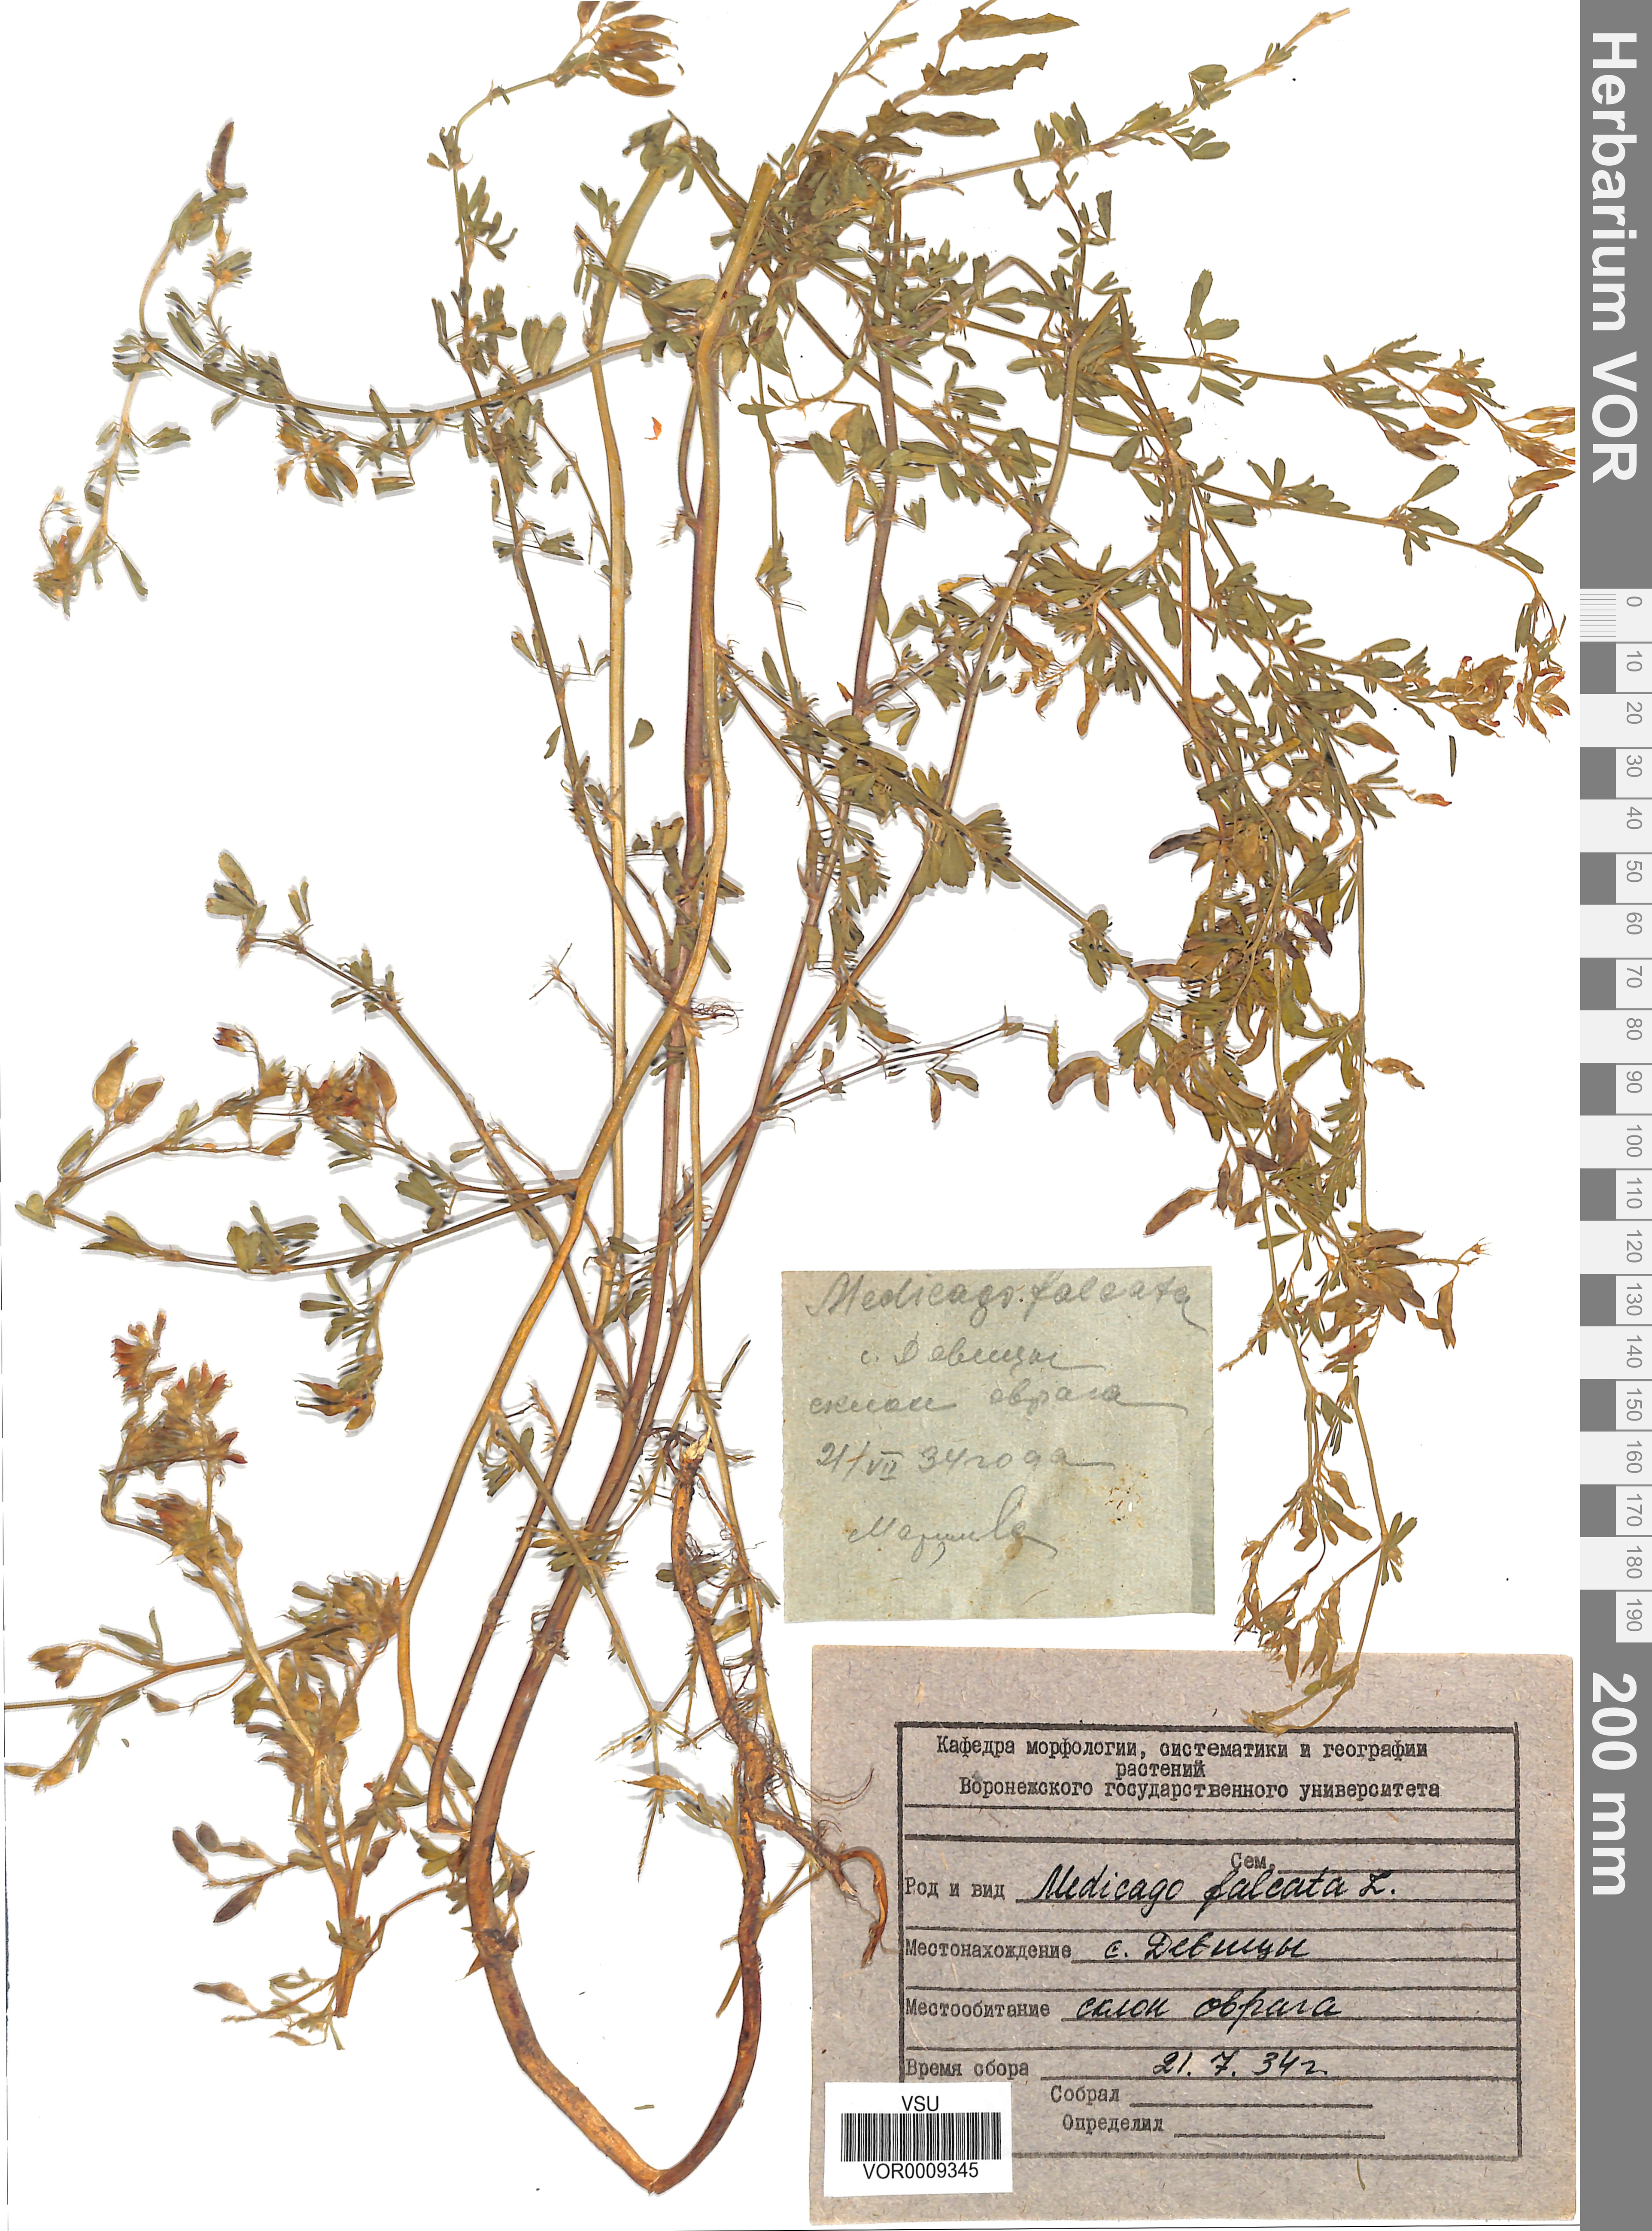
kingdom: Plantae
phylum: Tracheophyta
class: Magnoliopsida
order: Fabales
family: Fabaceae
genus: Medicago
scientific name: Medicago falcata
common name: Sickle medick
